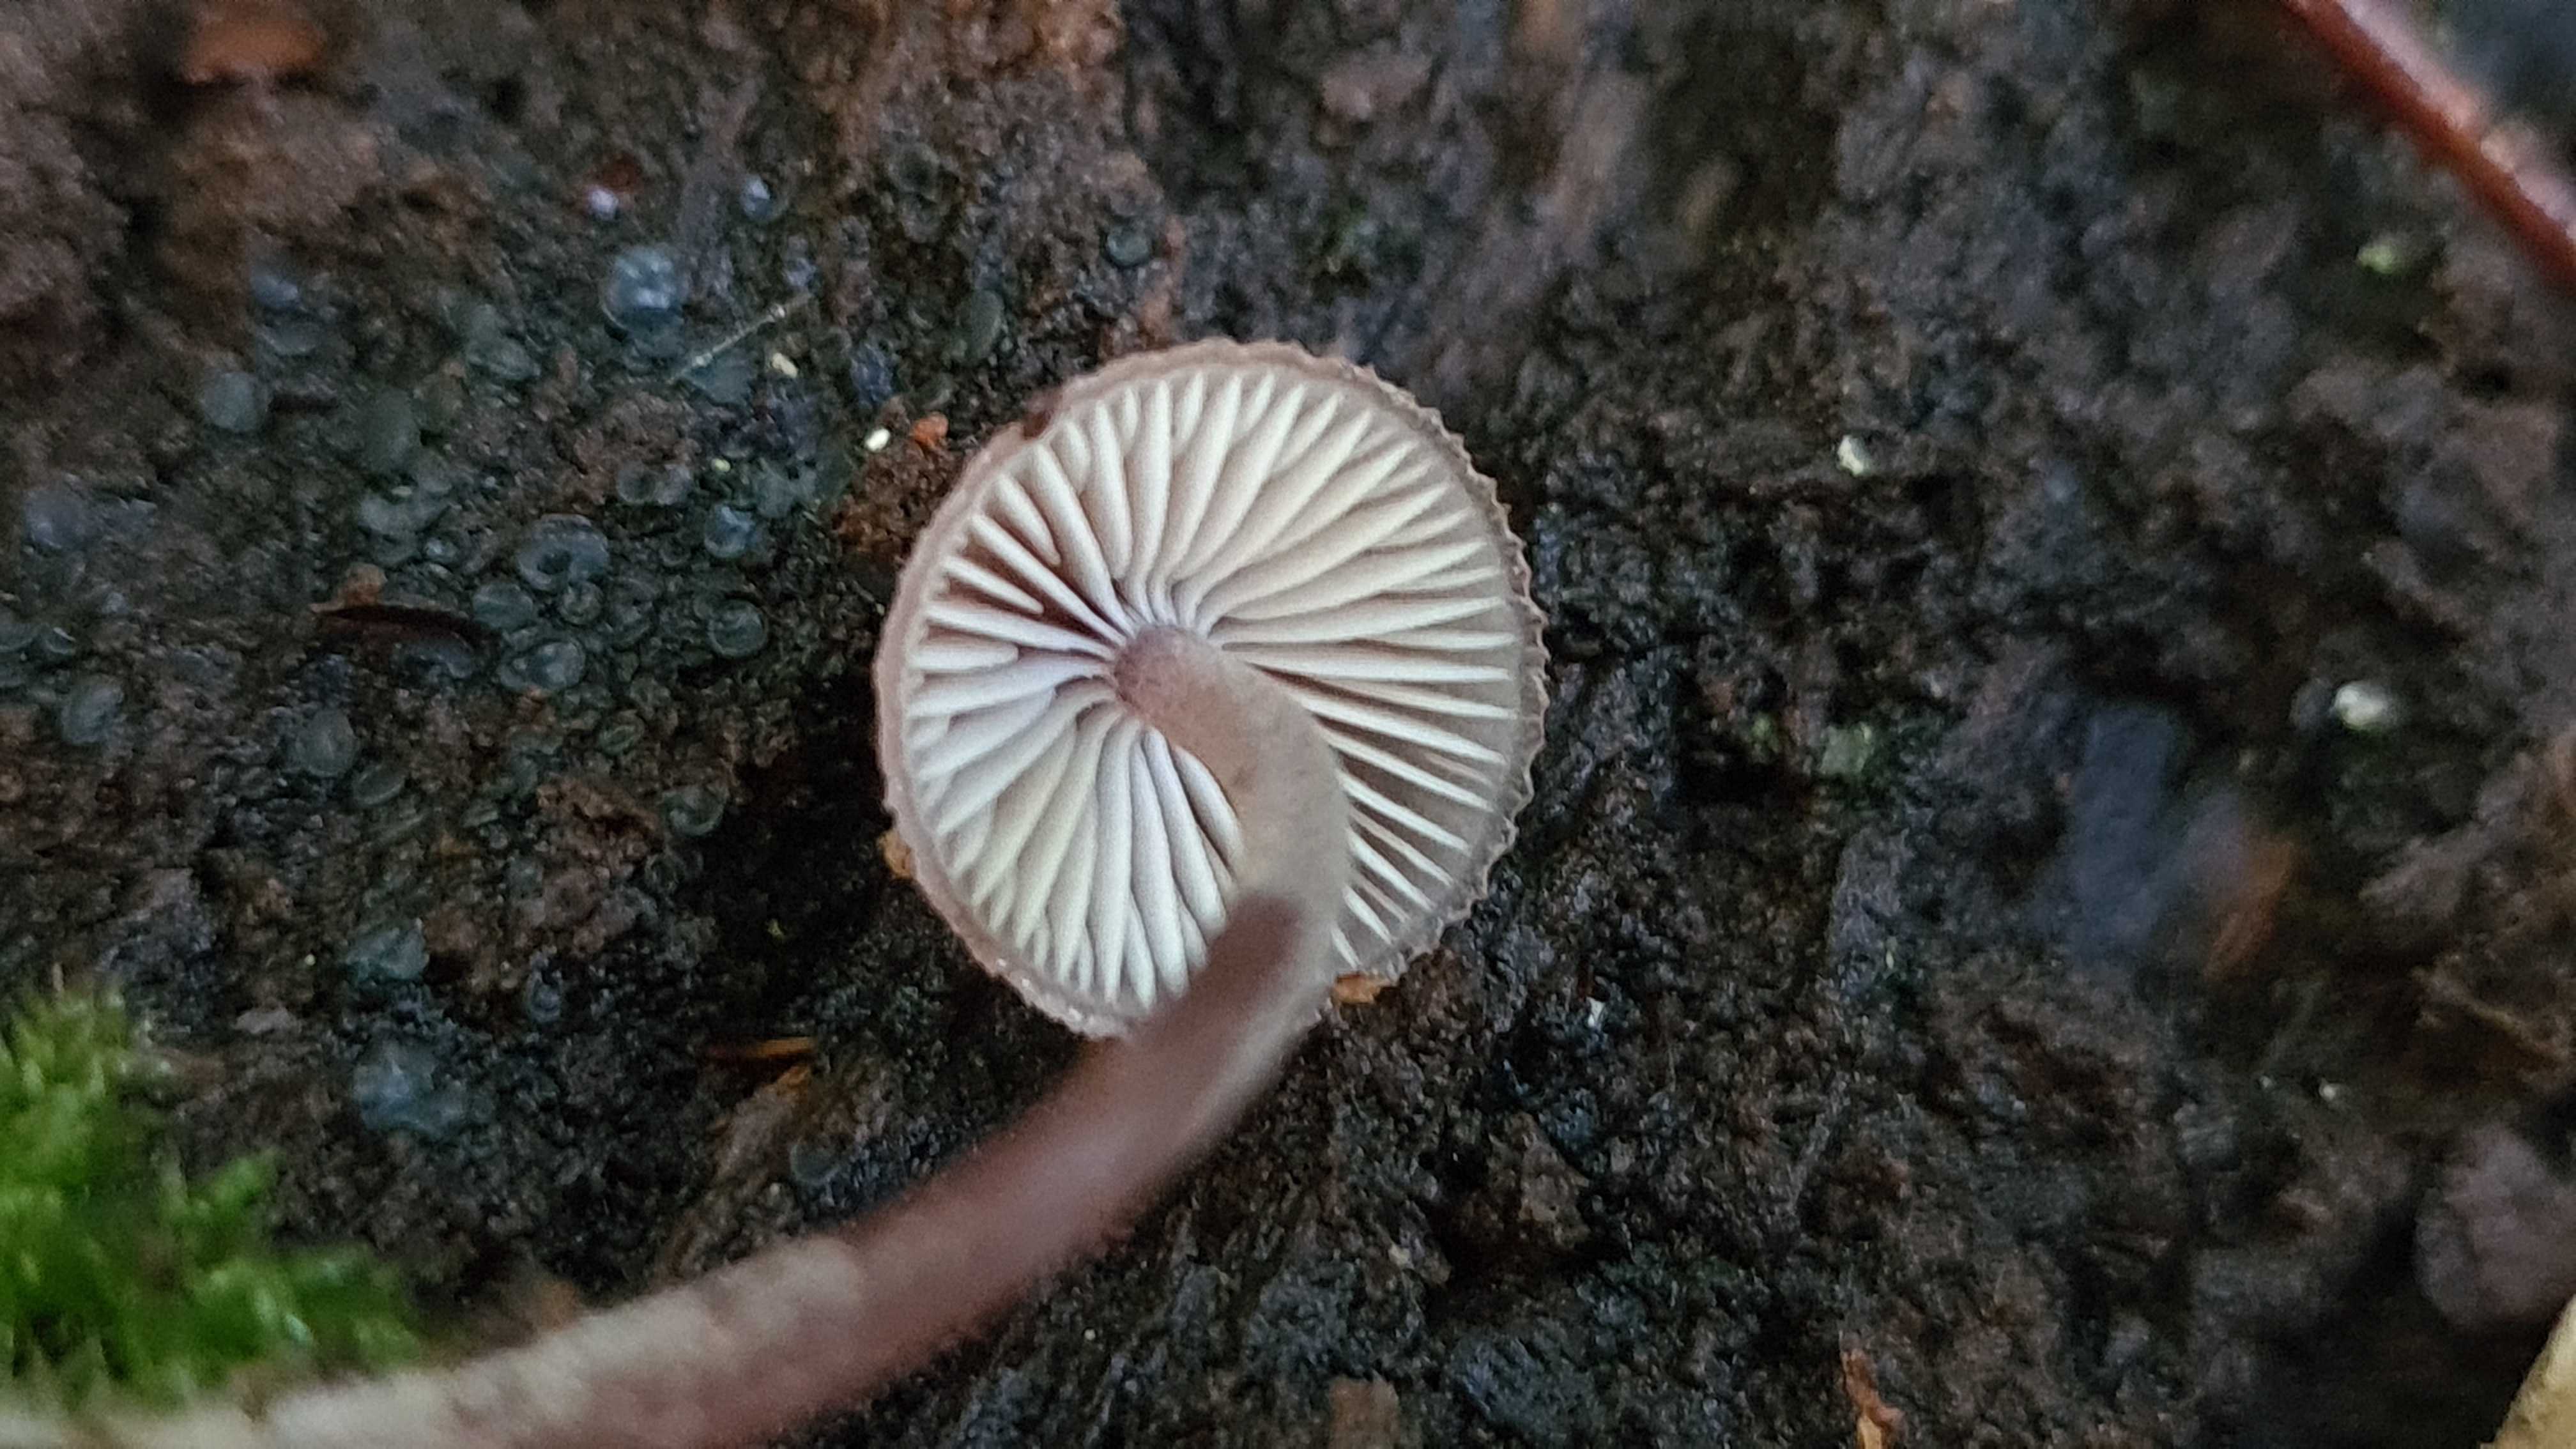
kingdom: Fungi
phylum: Basidiomycota
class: Agaricomycetes
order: Agaricales
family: Mycenaceae
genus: Mycena
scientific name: Mycena haematopus
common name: blødende huesvamp
